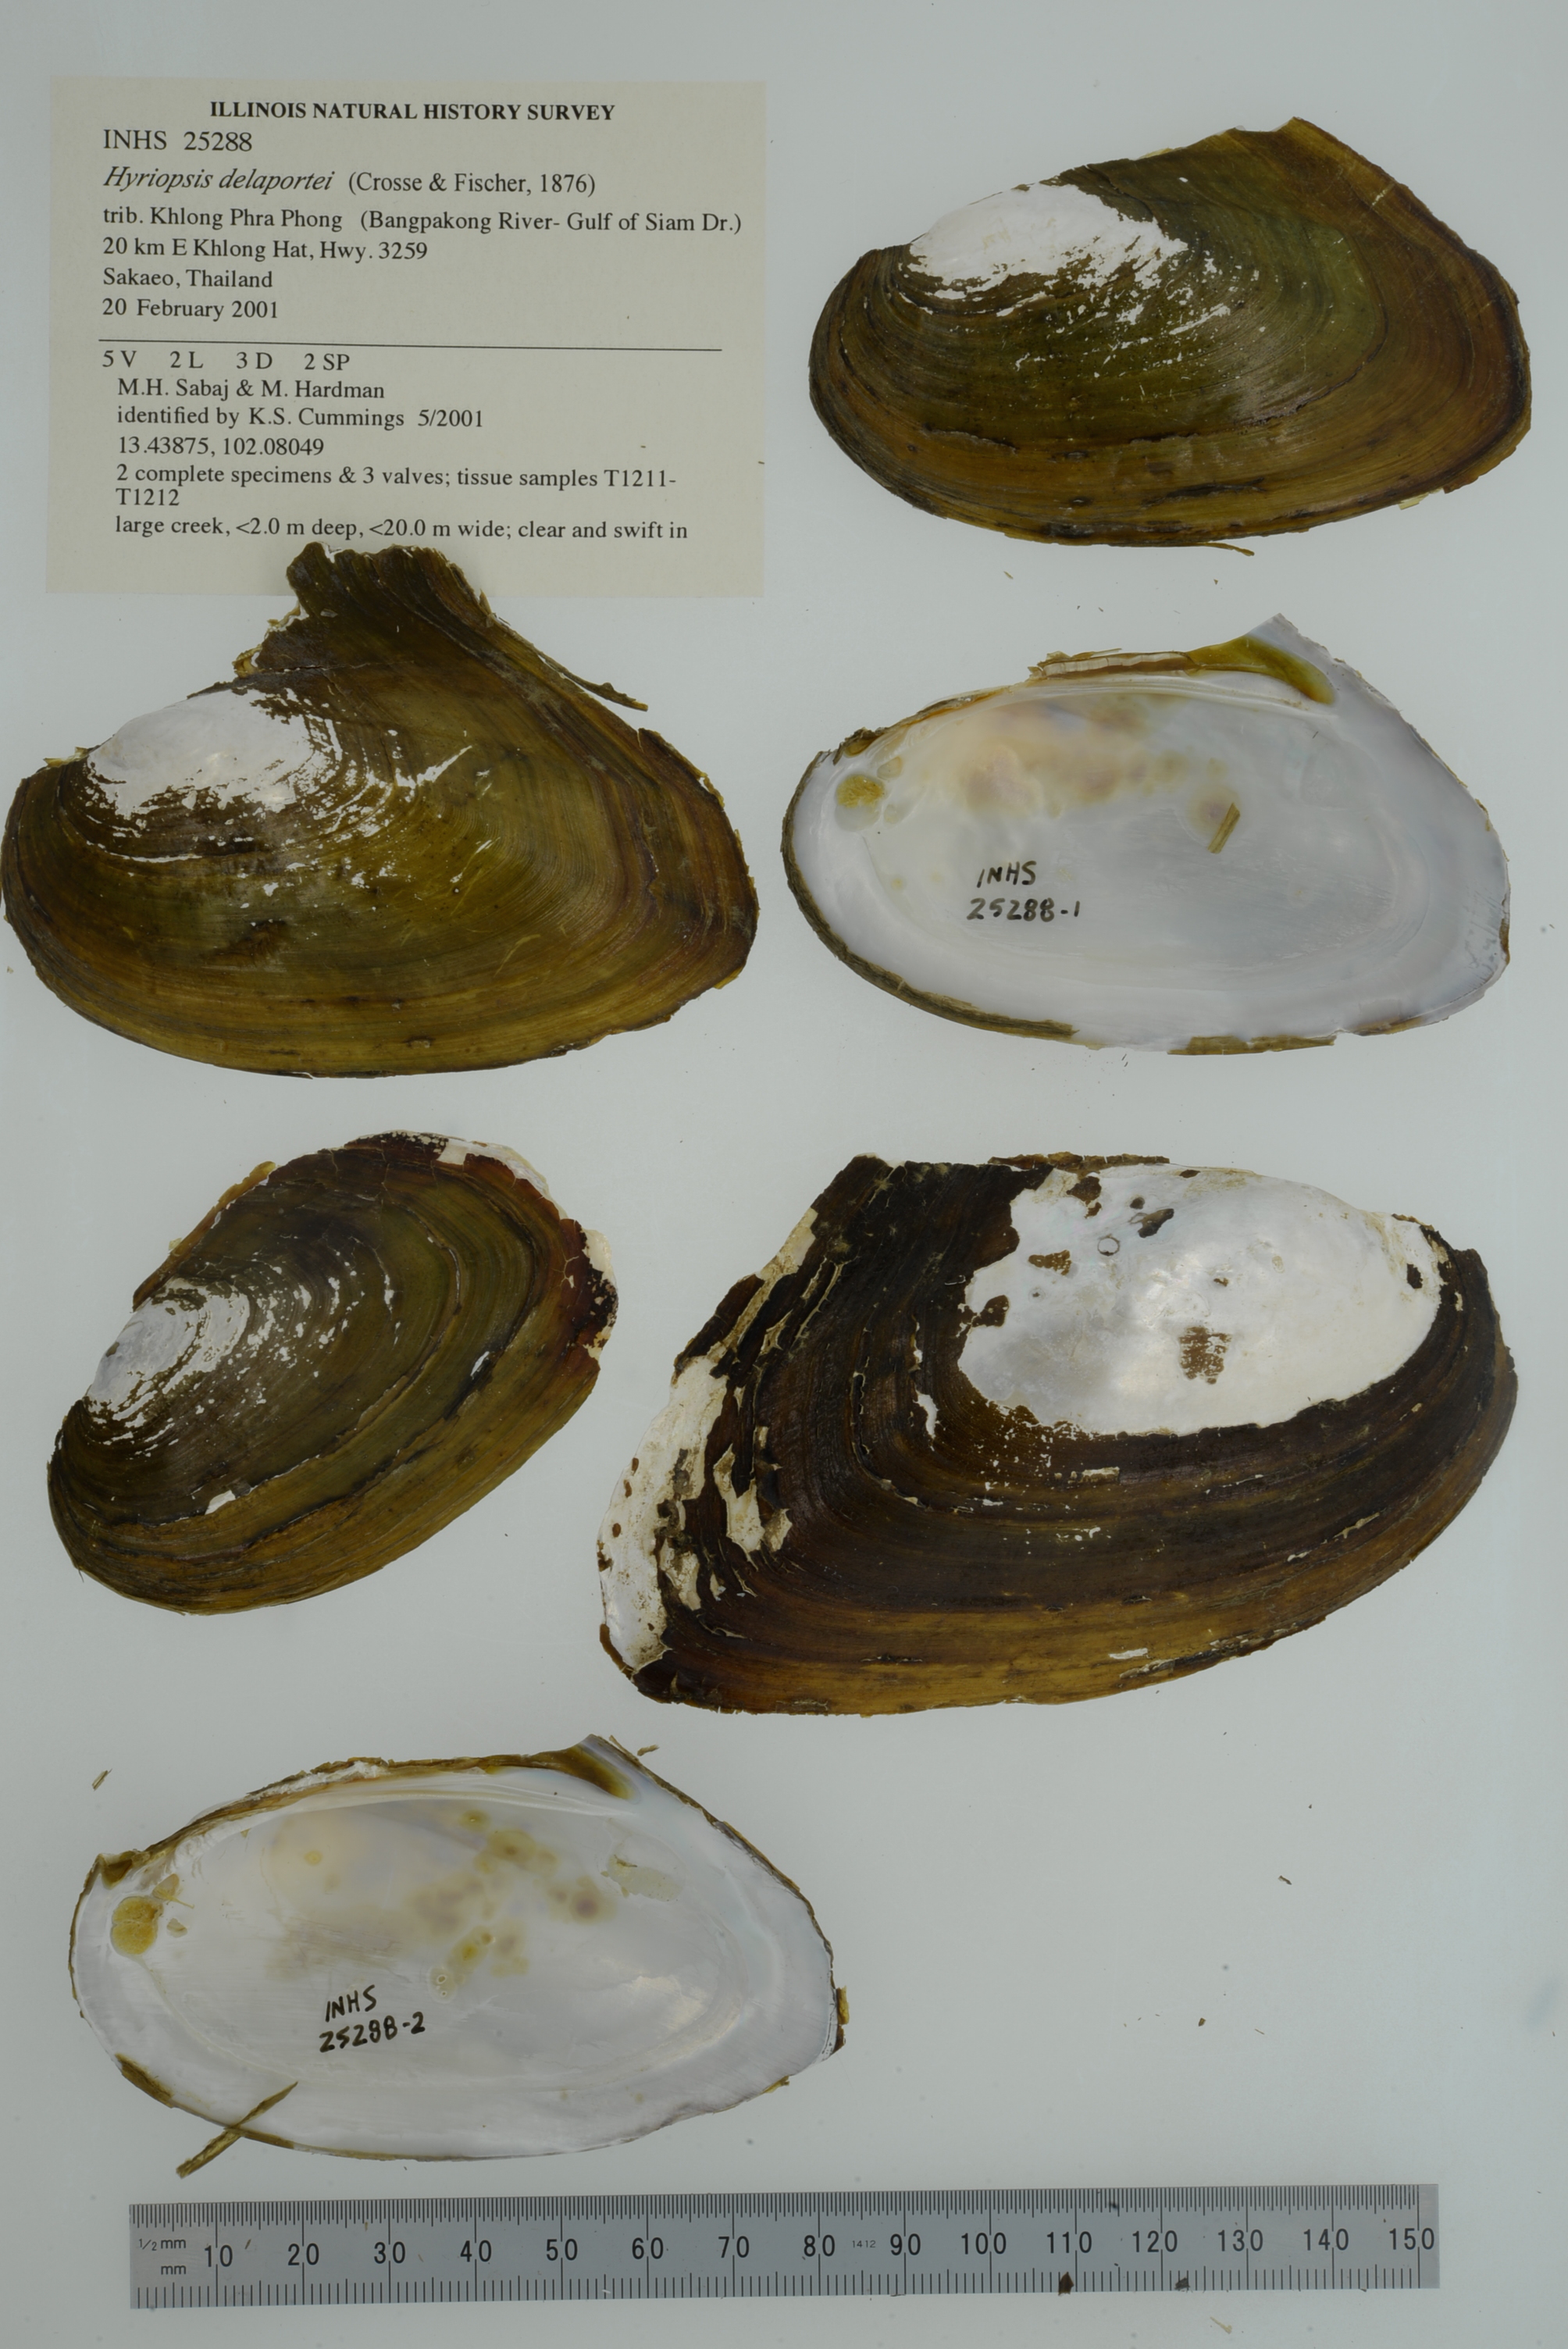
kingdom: Animalia
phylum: Mollusca
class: Bivalvia
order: Unionida
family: Unionidae
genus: Hyriopsis
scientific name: Hyriopsis delaportei
